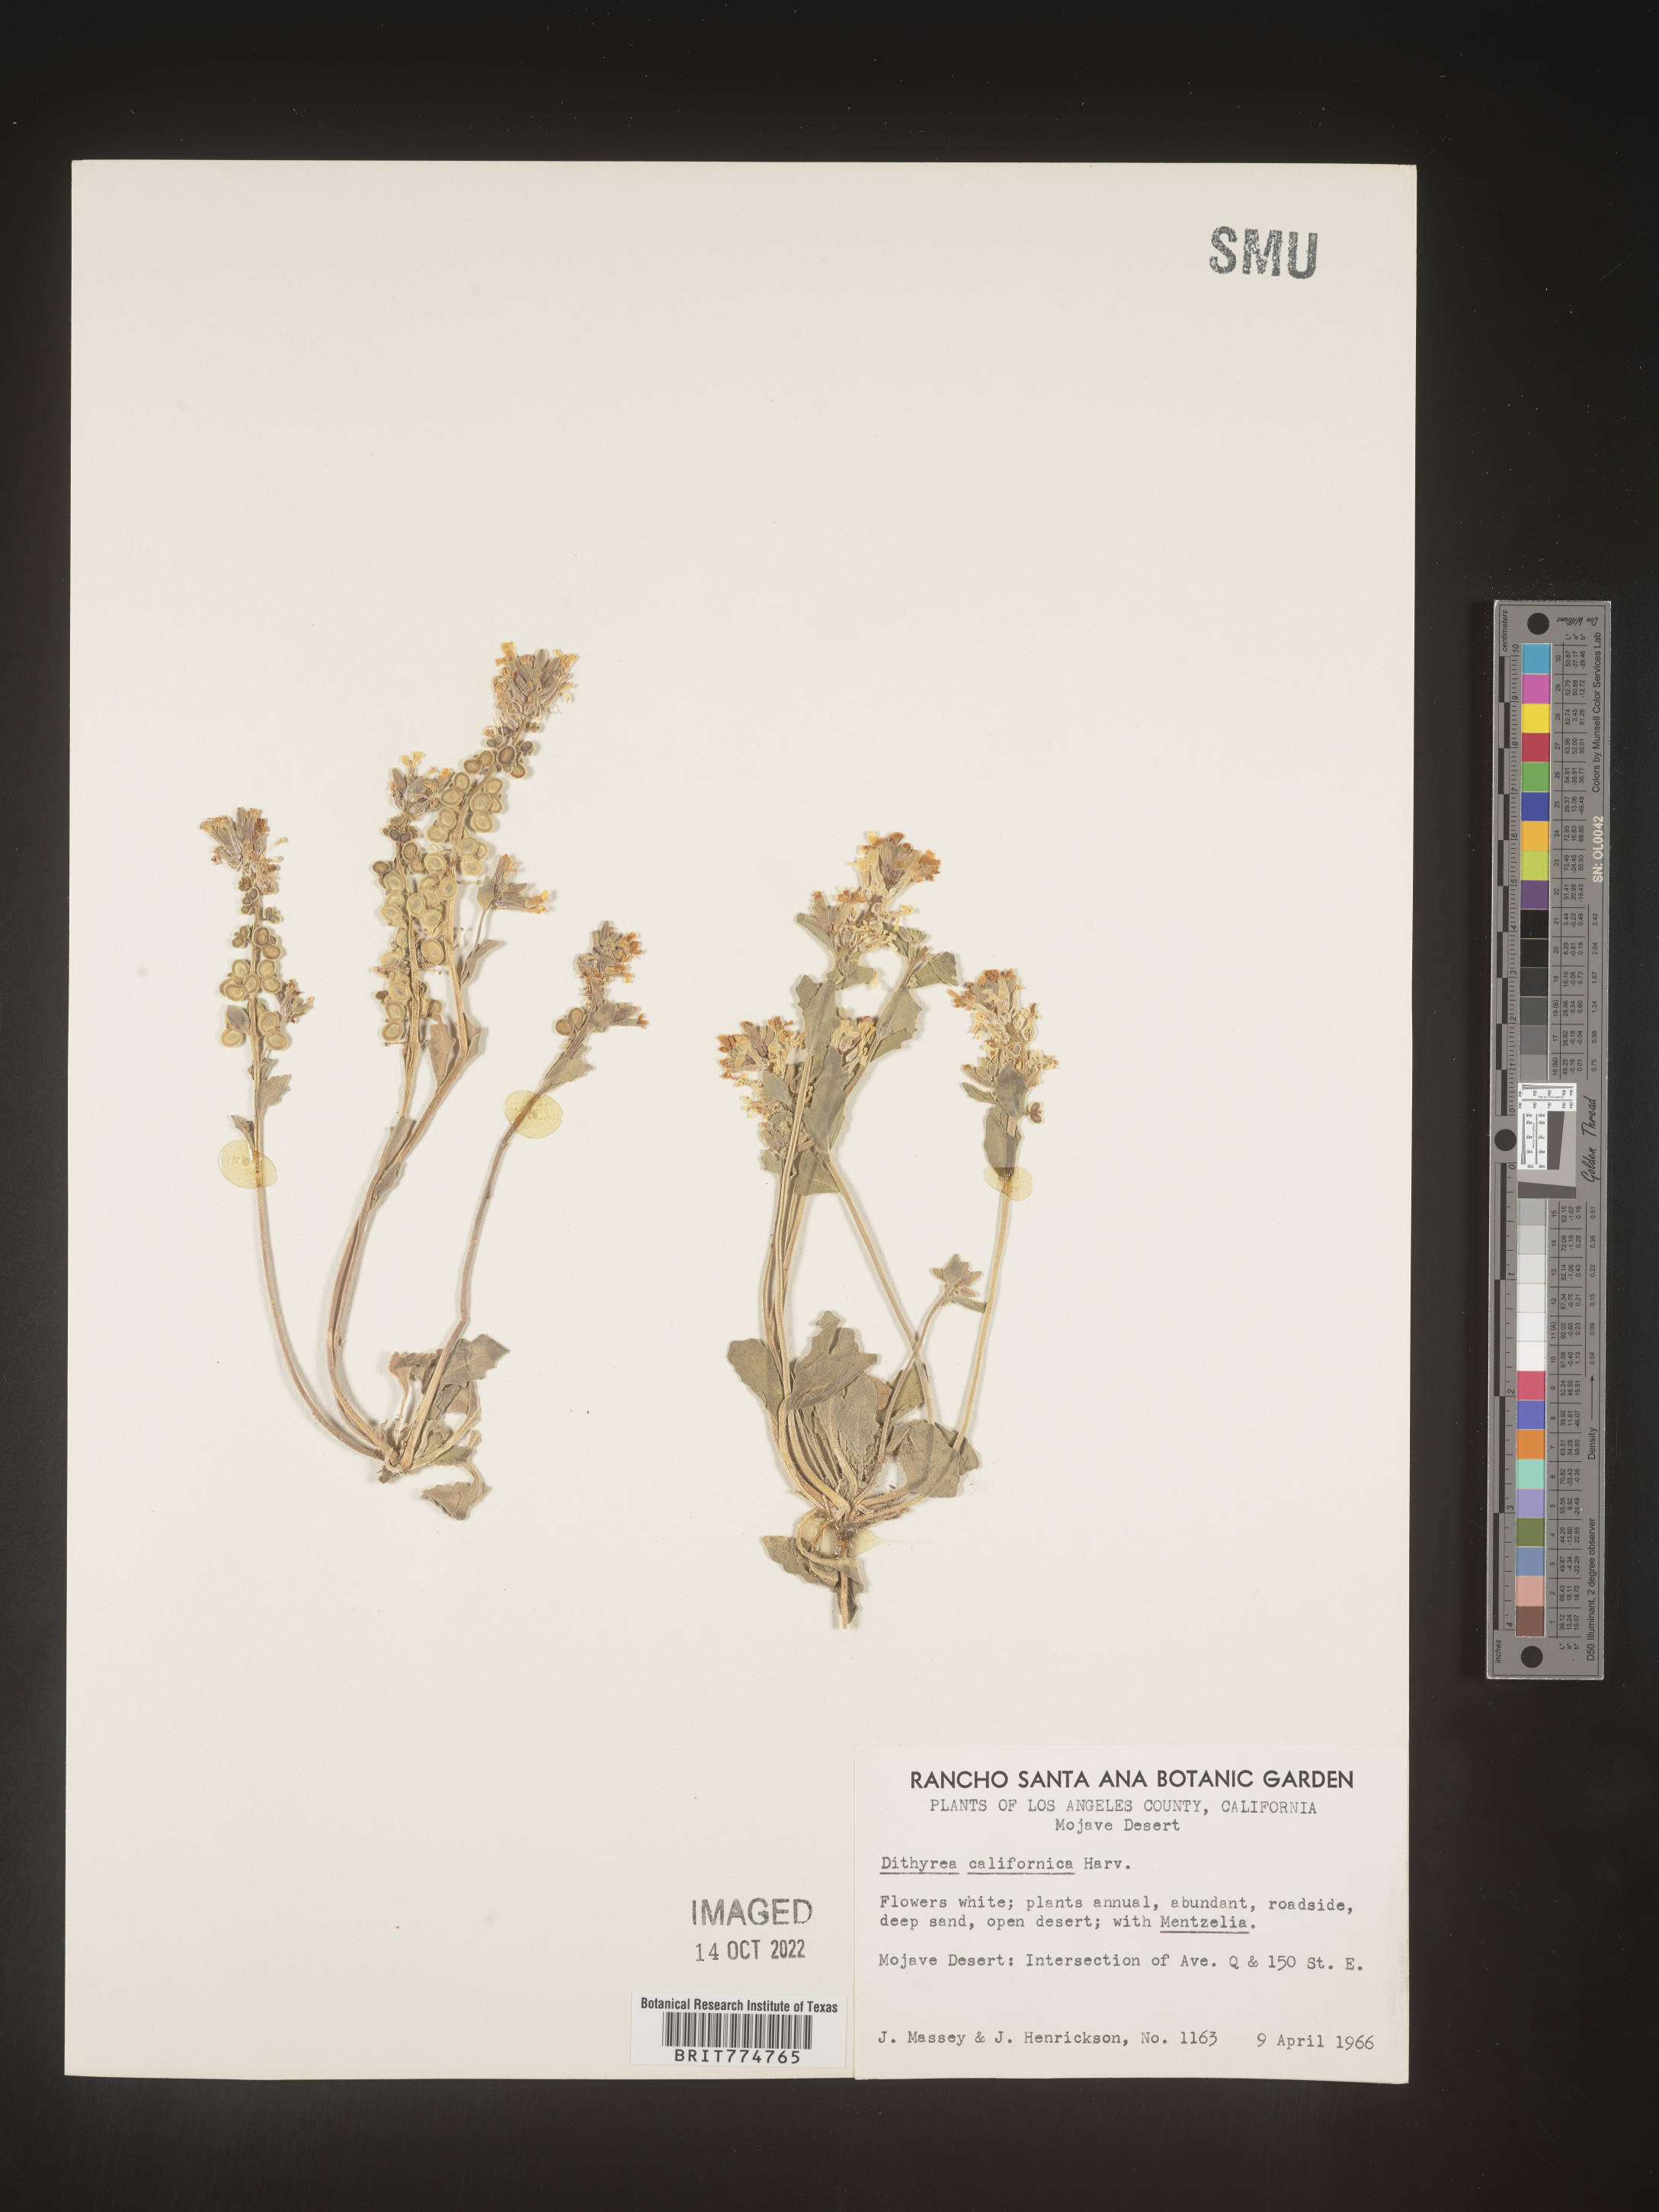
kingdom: Plantae
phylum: Tracheophyta
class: Magnoliopsida
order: Brassicales
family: Brassicaceae
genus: Dithyrea
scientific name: Dithyrea californica
